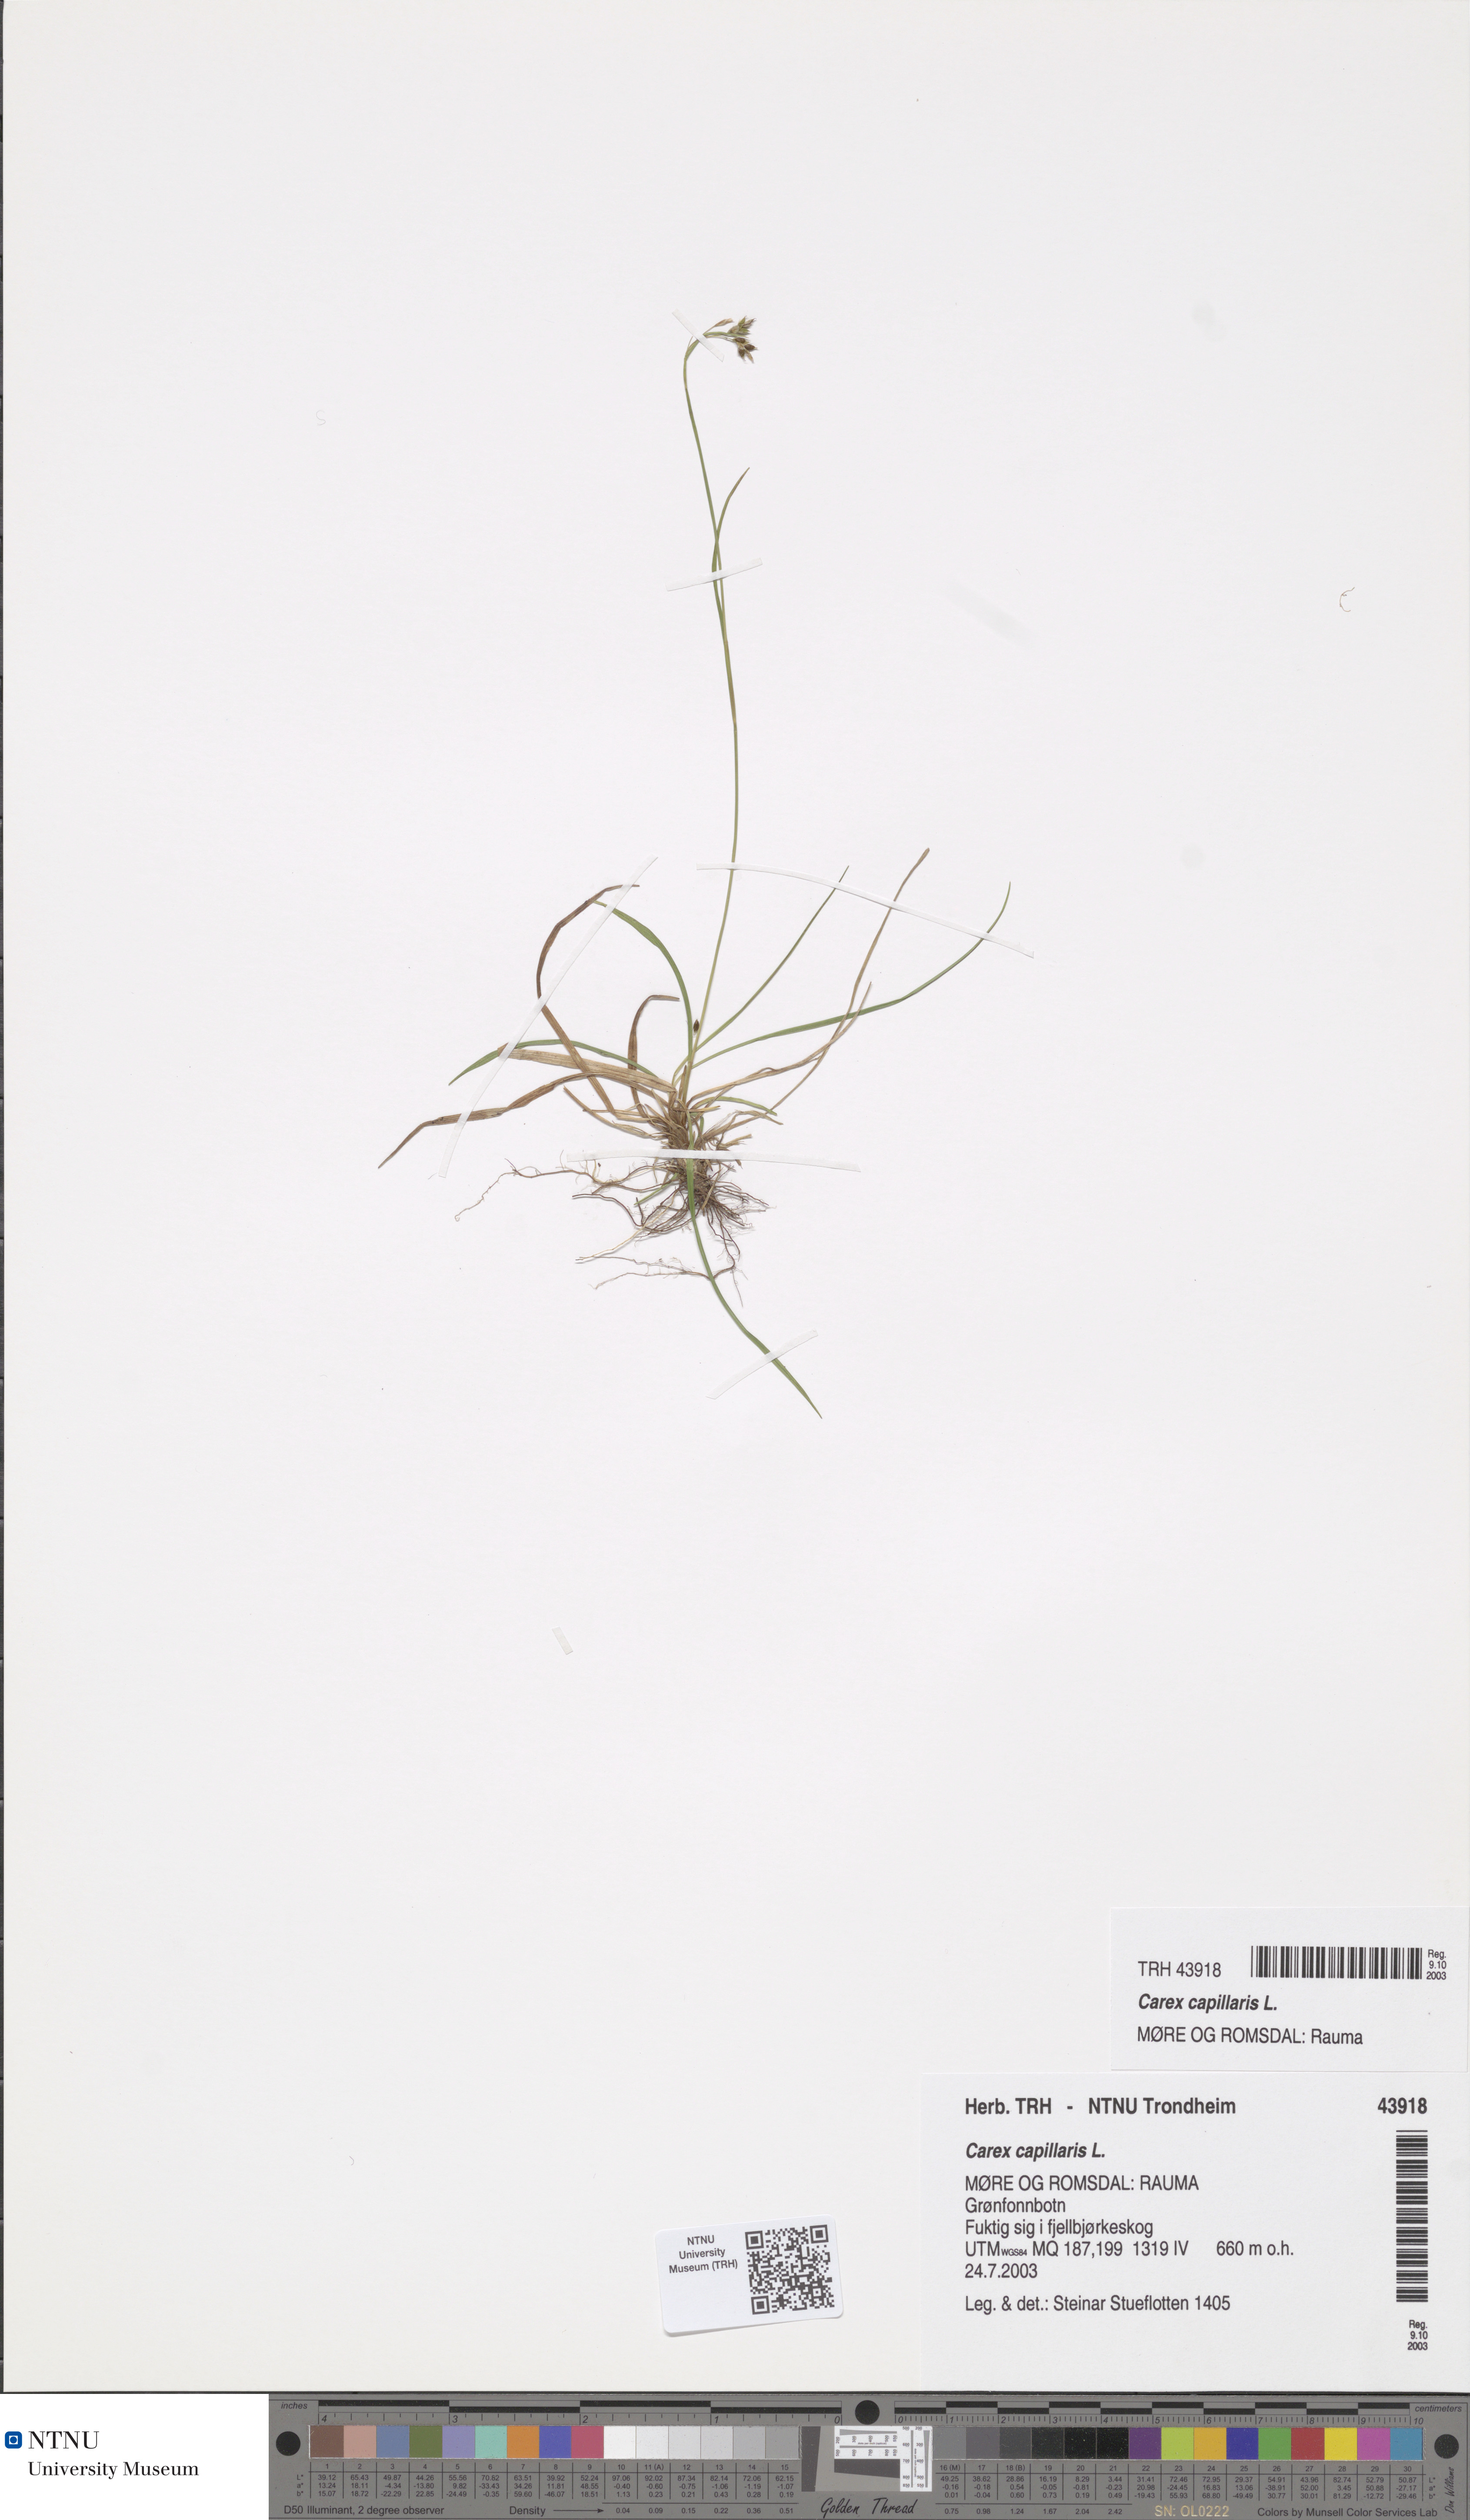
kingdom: Plantae
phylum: Tracheophyta
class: Liliopsida
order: Poales
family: Cyperaceae
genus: Carex
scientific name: Carex capillaris
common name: Hair sedge
